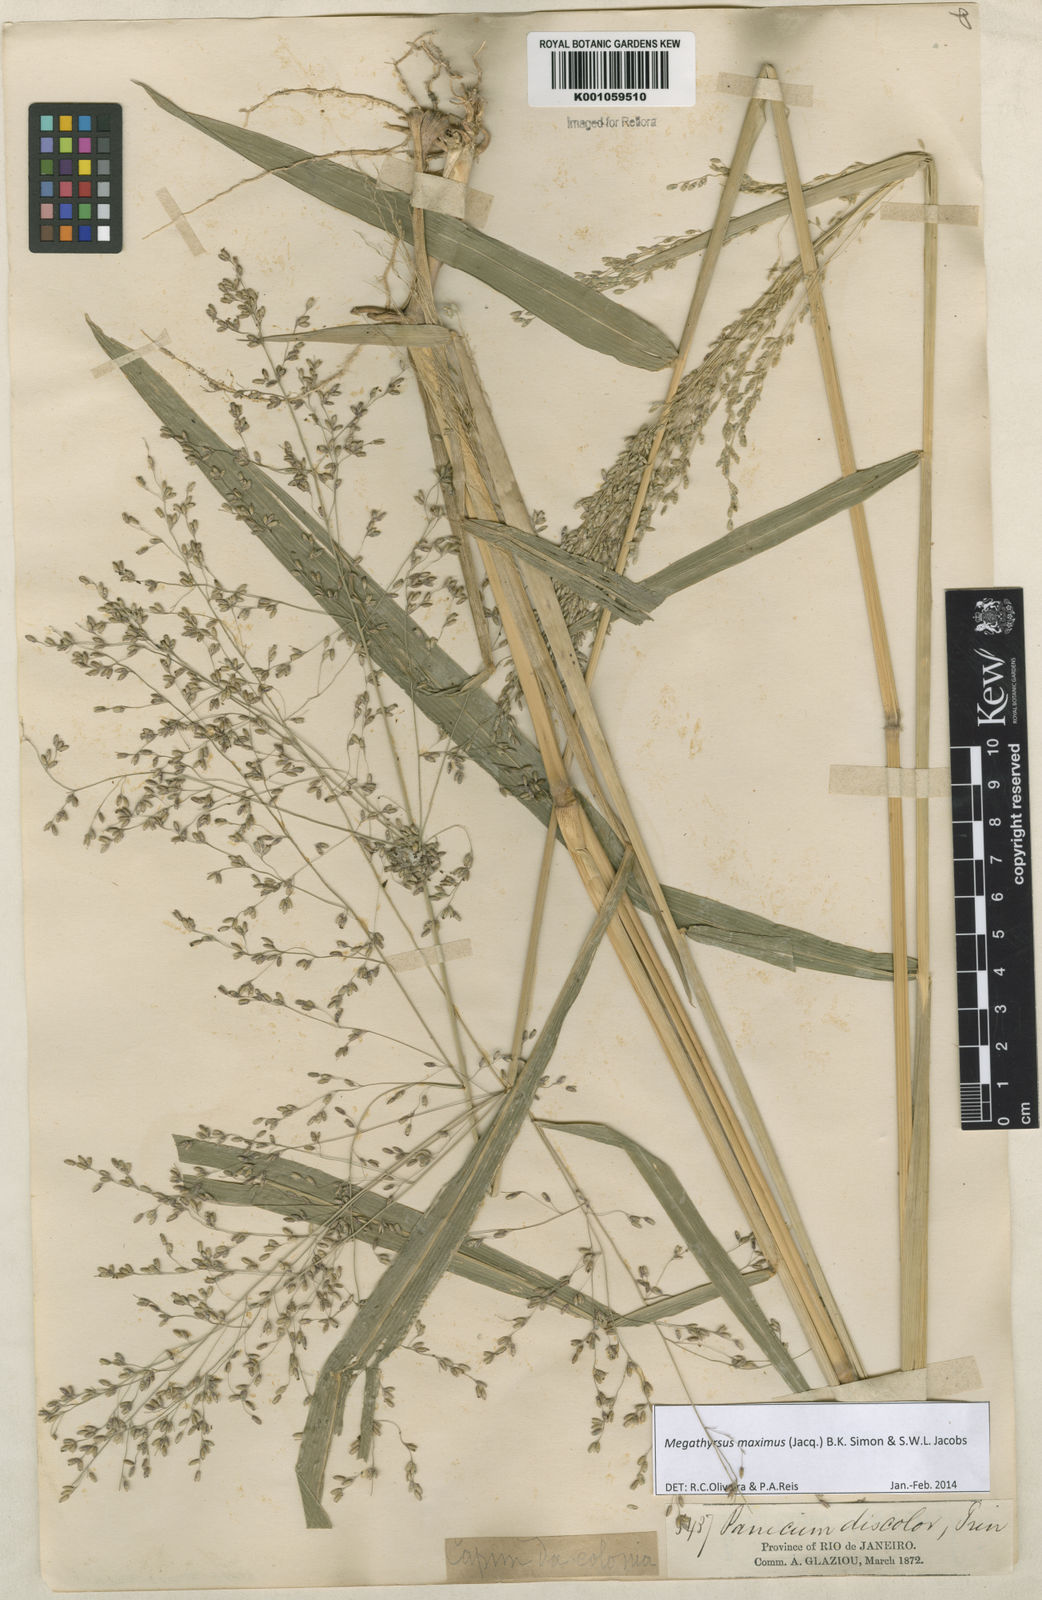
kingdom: Plantae
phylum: Tracheophyta
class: Liliopsida
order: Poales
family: Poaceae
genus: Megathyrsus
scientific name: Megathyrsus maximus
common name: Guineagrass
